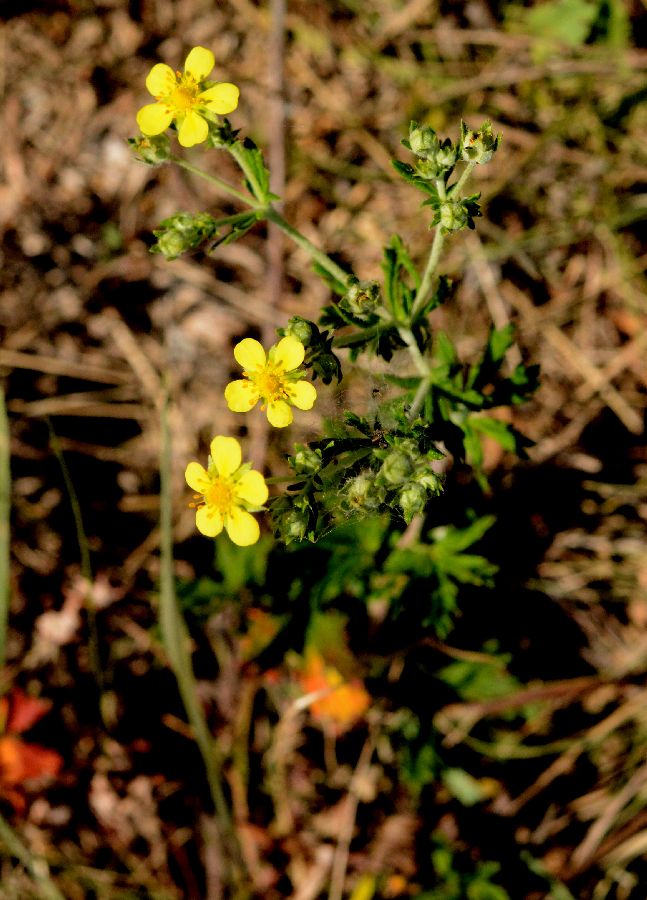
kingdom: Plantae
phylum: Tracheophyta
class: Magnoliopsida
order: Rosales
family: Rosaceae
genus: Potentilla
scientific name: Potentilla argentea
